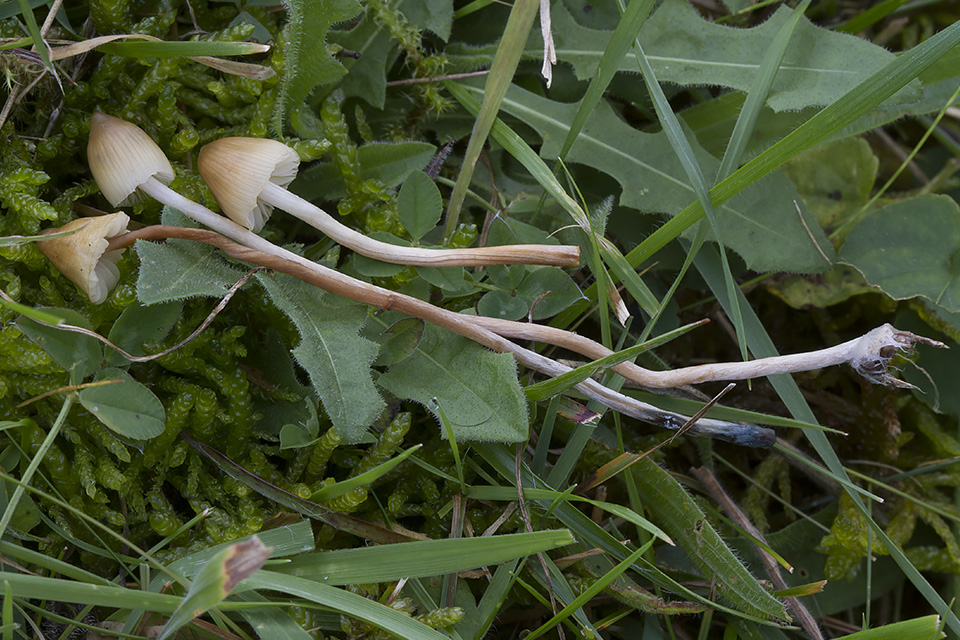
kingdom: Fungi
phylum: Basidiomycota
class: Agaricomycetes
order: Agaricales
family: Hymenogastraceae
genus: Psilocybe
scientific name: Psilocybe semilanceata
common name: spids nøgenhat
